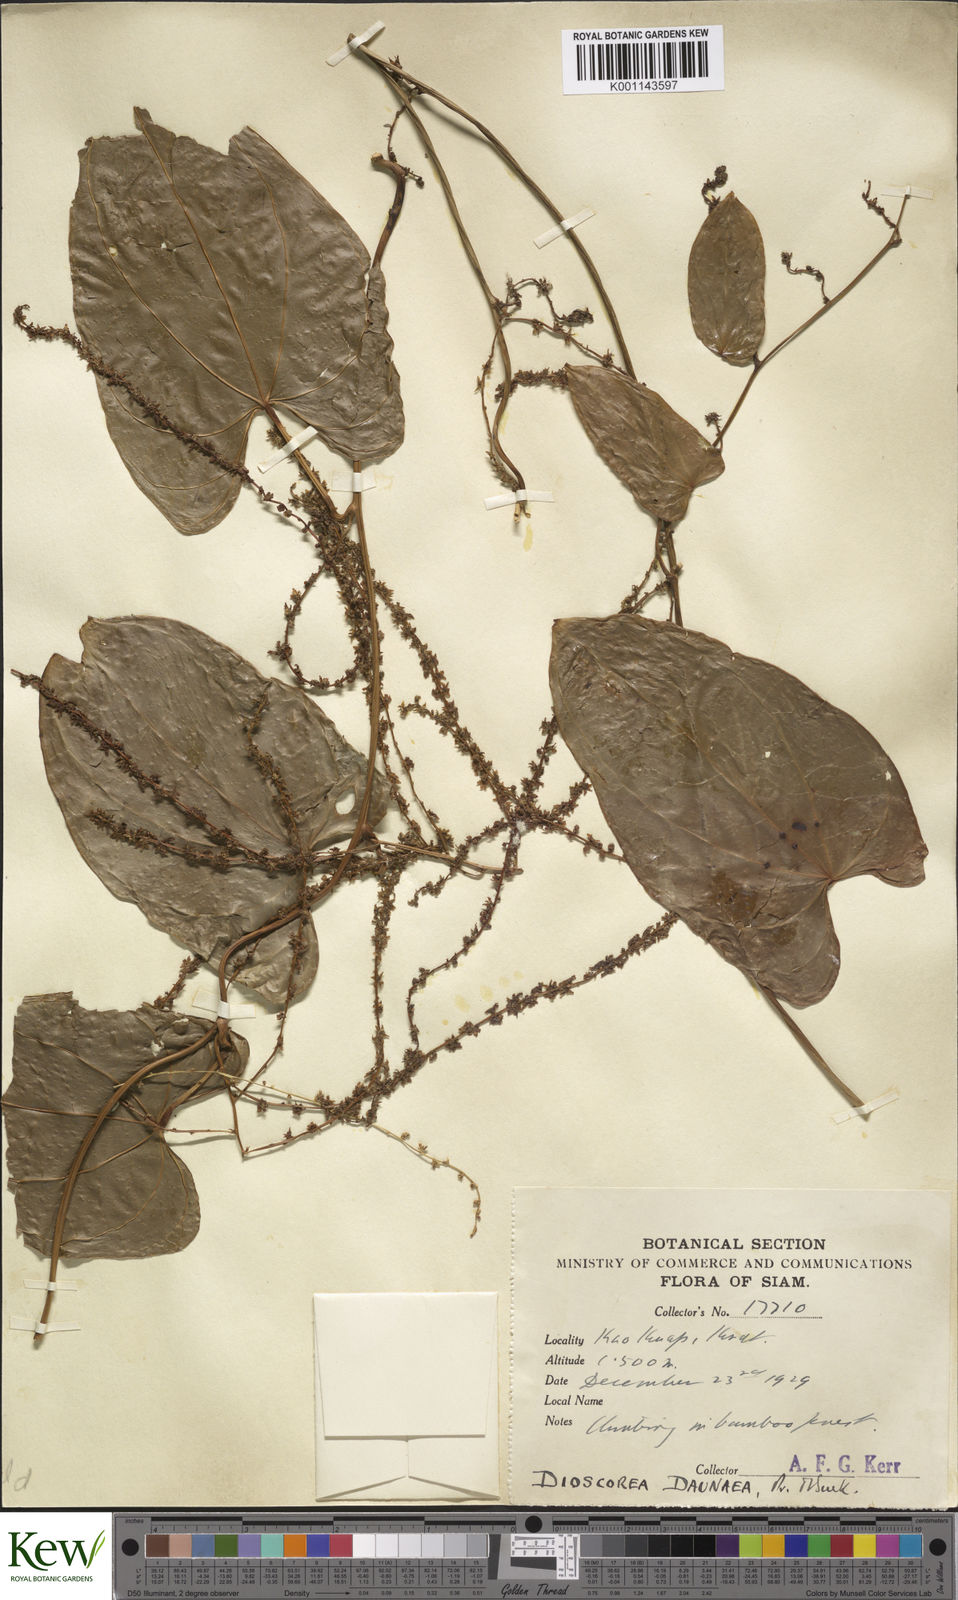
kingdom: Plantae
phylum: Tracheophyta
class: Liliopsida
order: Dioscoreales
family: Dioscoreaceae
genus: Dioscorea
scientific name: Dioscorea daunea
